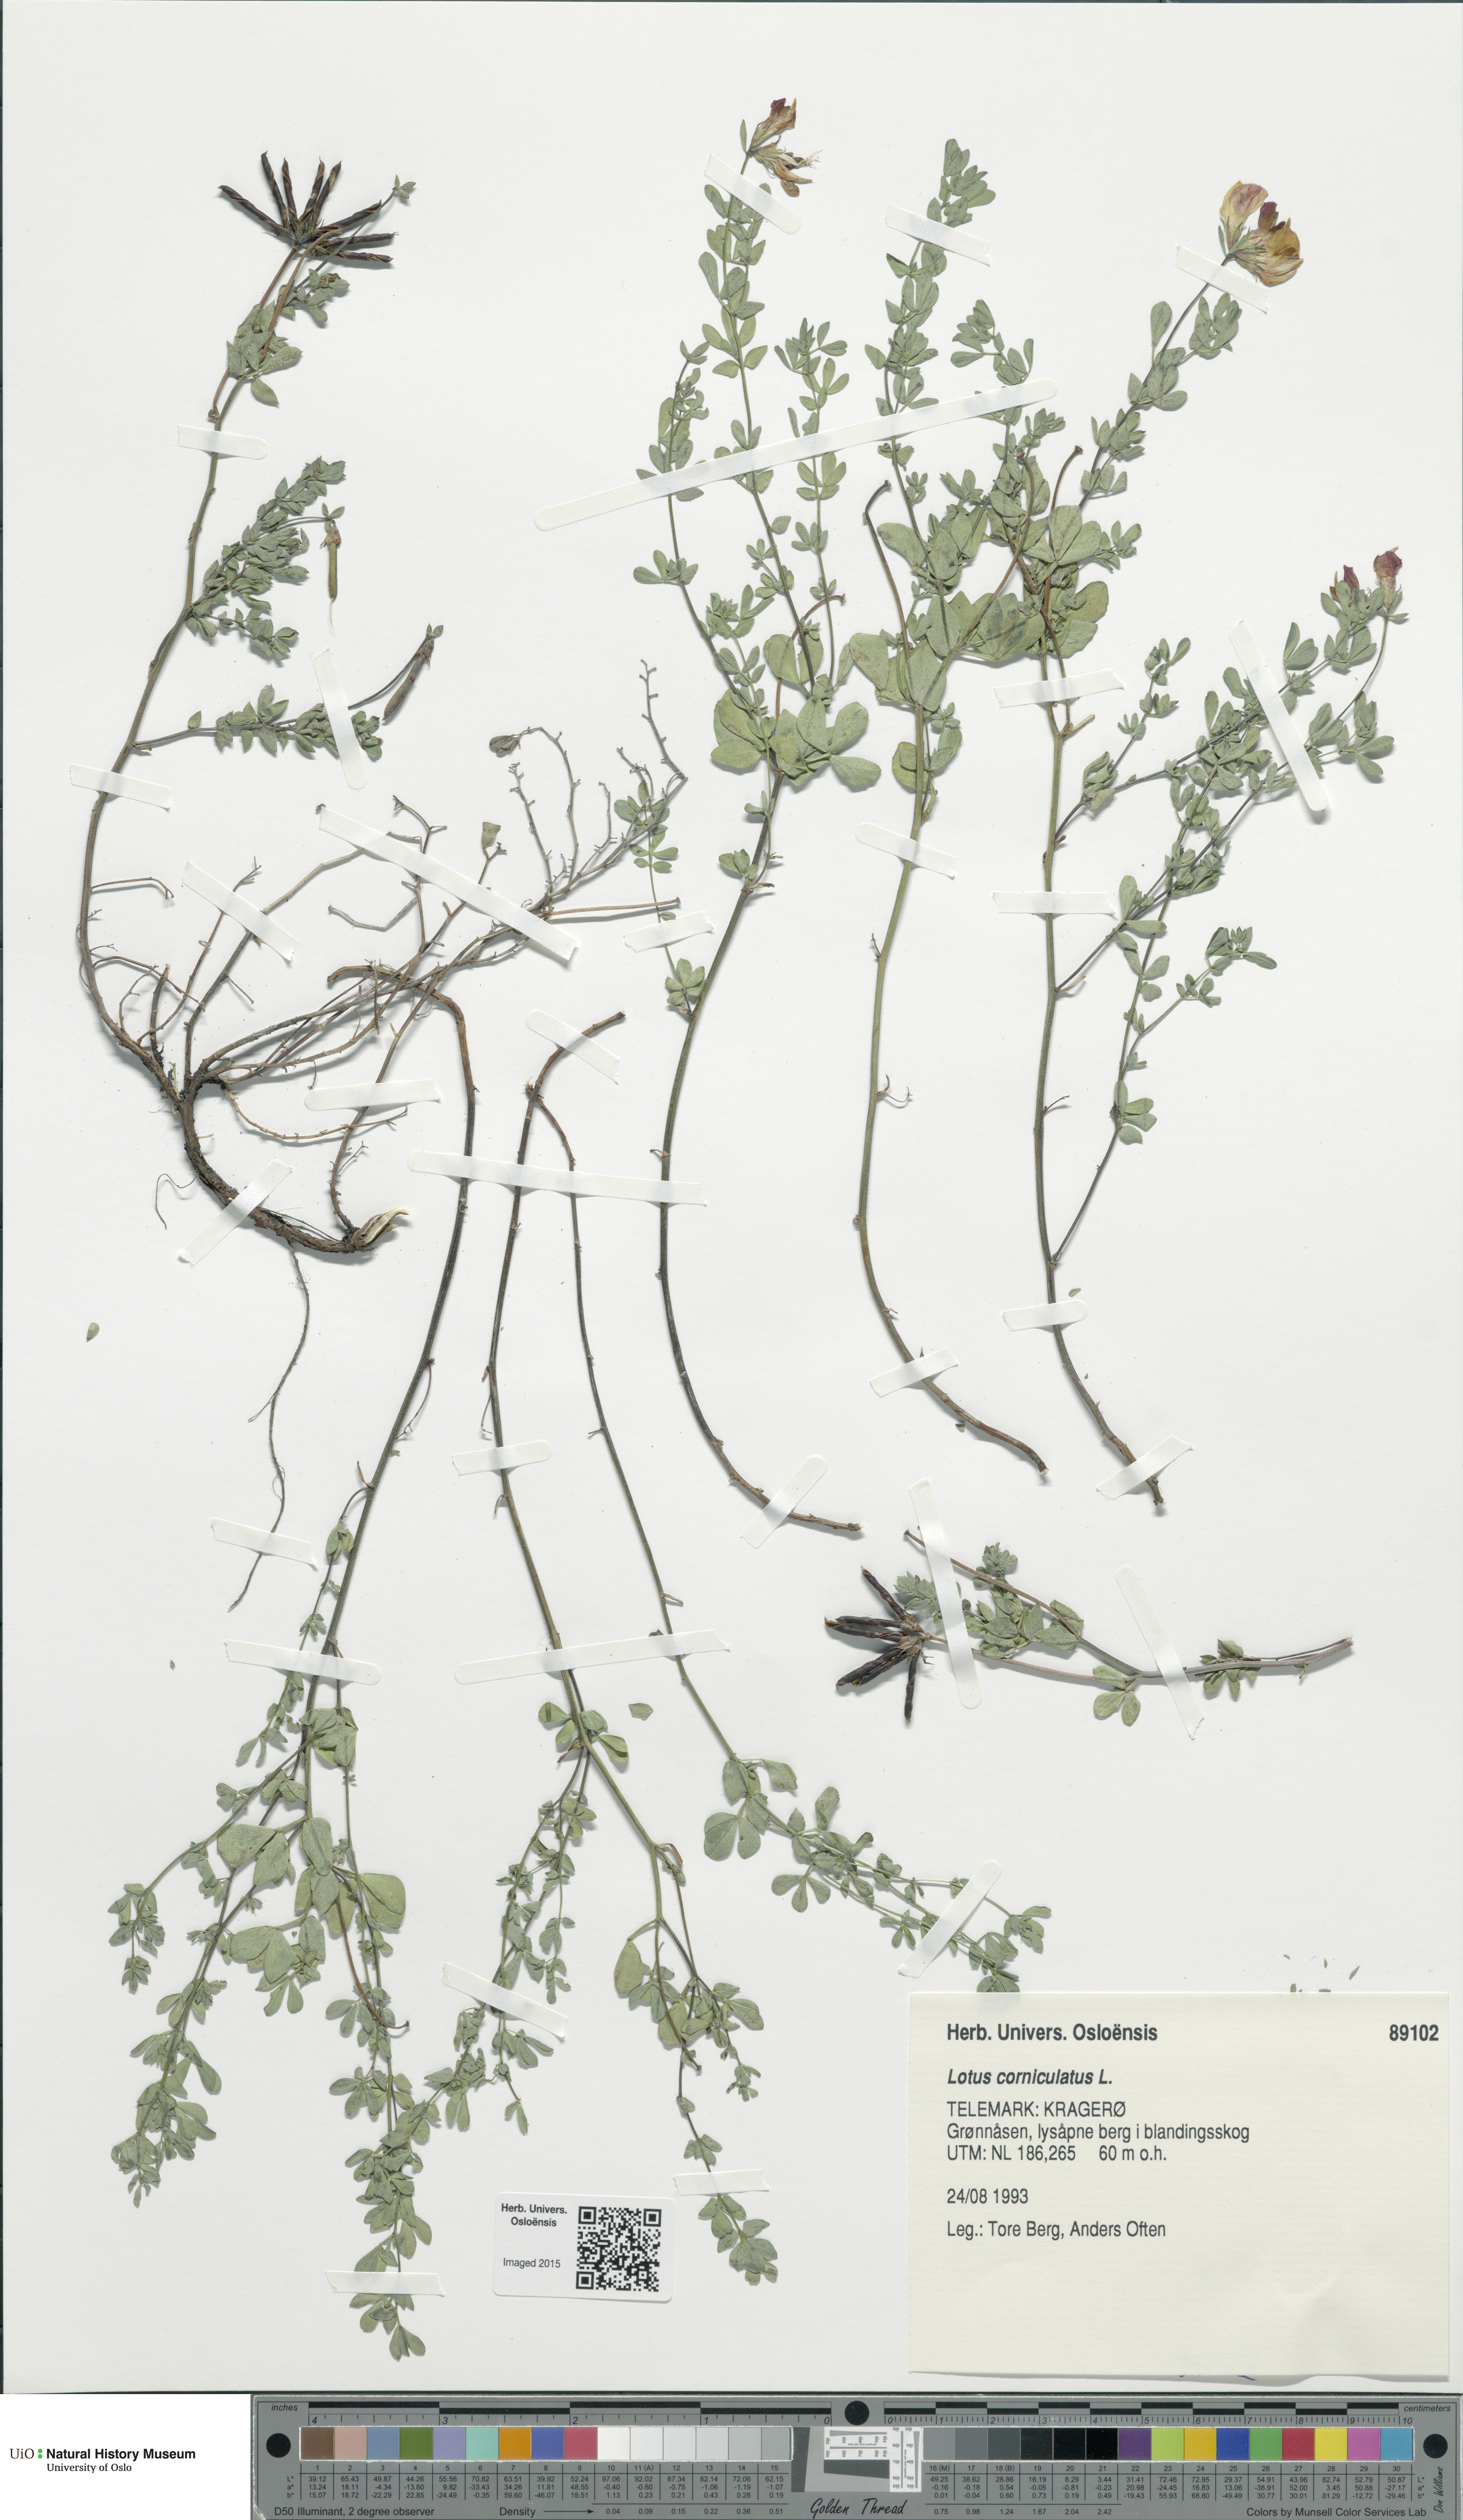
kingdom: Plantae
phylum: Tracheophyta
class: Magnoliopsida
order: Fabales
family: Fabaceae
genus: Lotus
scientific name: Lotus corniculatus
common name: Common bird's-foot-trefoil
